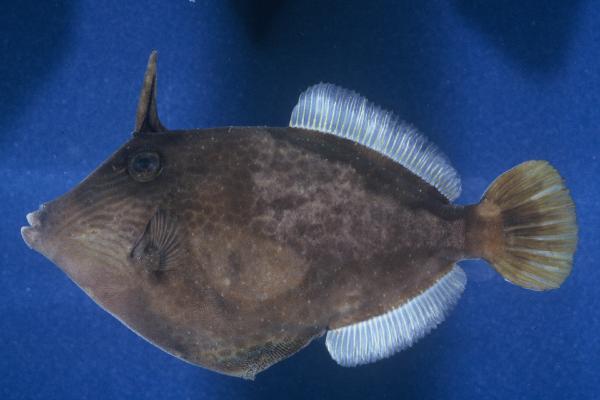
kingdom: Animalia
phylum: Chordata
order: Tetraodontiformes
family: Monacanthidae
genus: Cantherhines
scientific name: Cantherhines pardalis
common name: Honeycomb filefish
